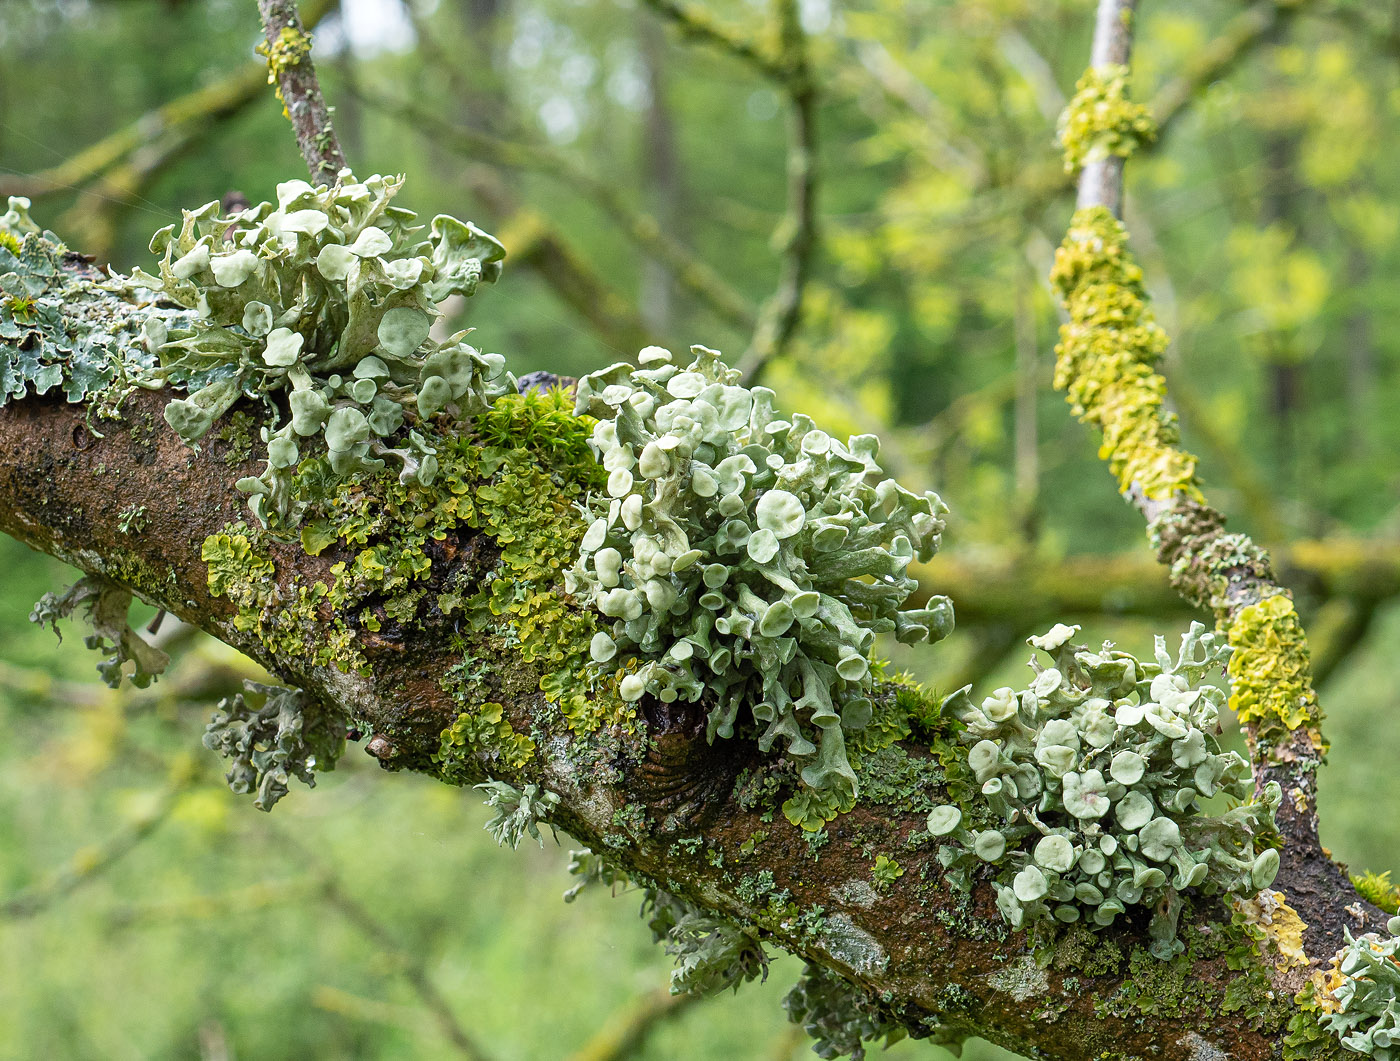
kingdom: Fungi
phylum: Ascomycota
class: Lecanoromycetes
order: Lecanorales
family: Ramalinaceae
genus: Ramalina
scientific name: Ramalina fastigiata
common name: tue-grenlav
